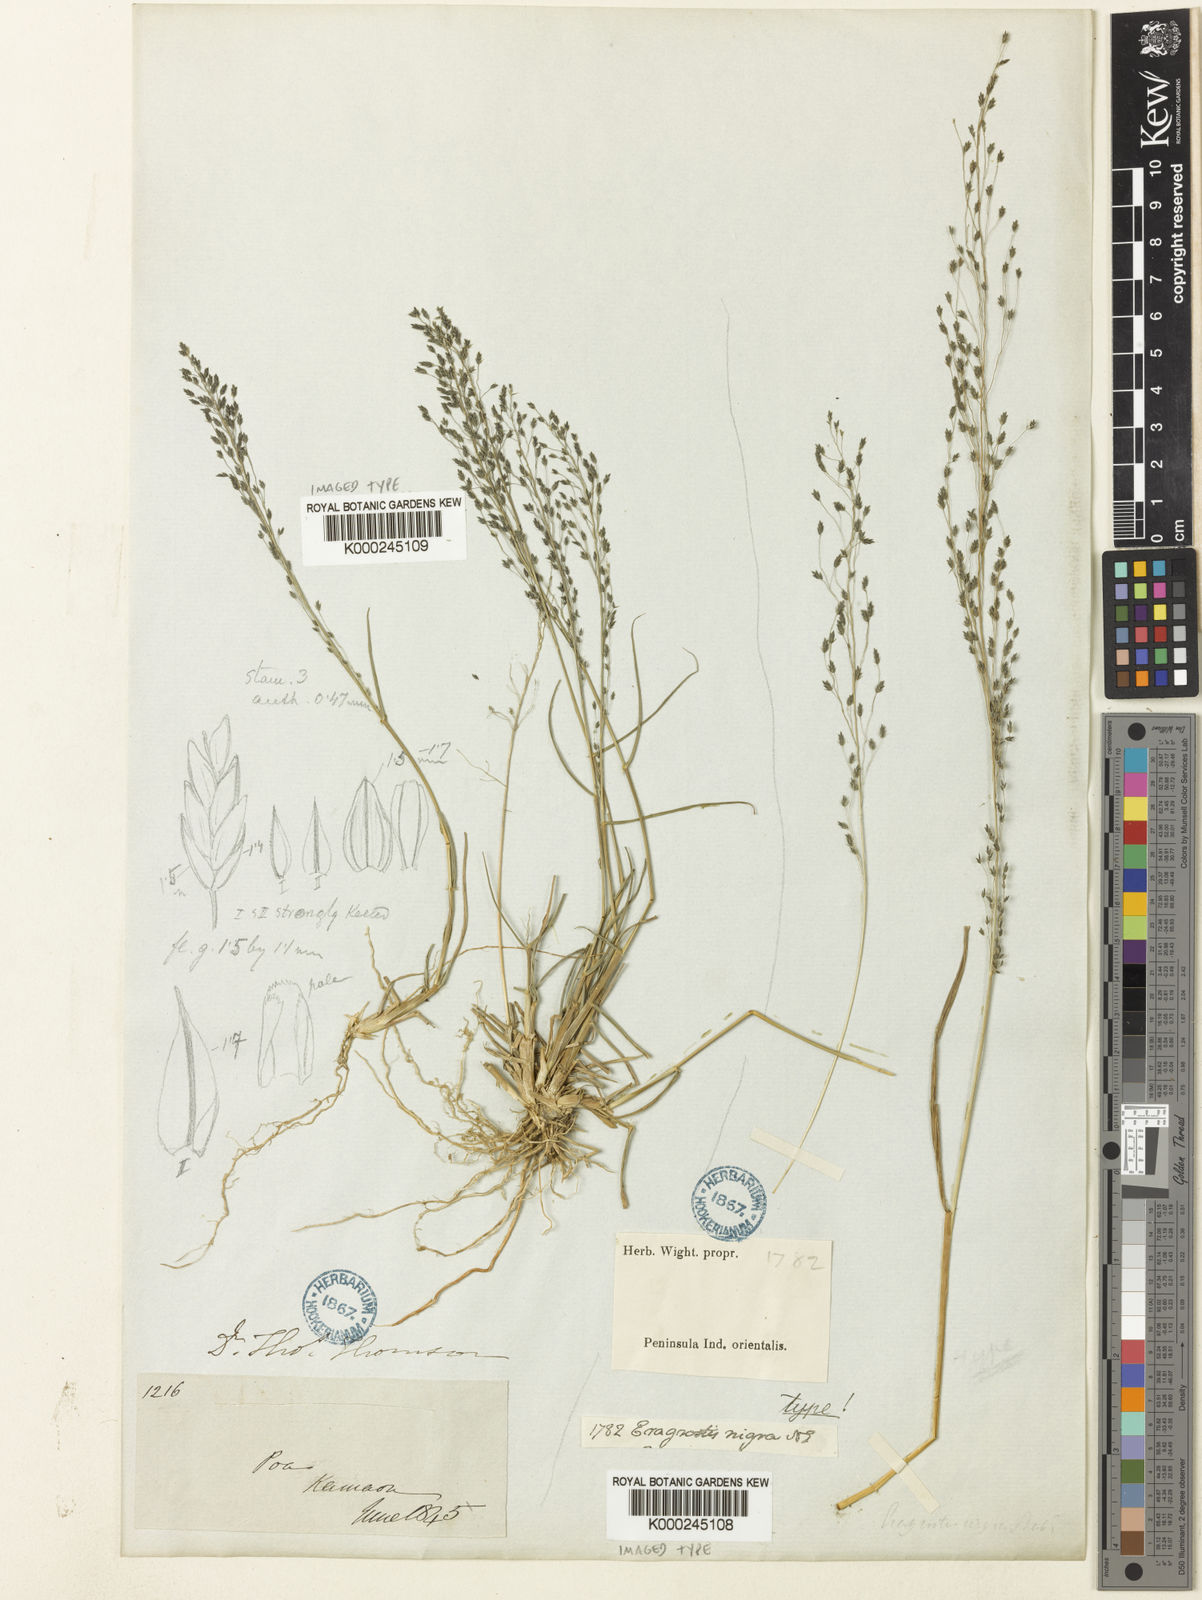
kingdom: Plantae
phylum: Tracheophyta
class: Liliopsida
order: Poales
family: Poaceae
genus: Eragrostis
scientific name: Eragrostis nigra
